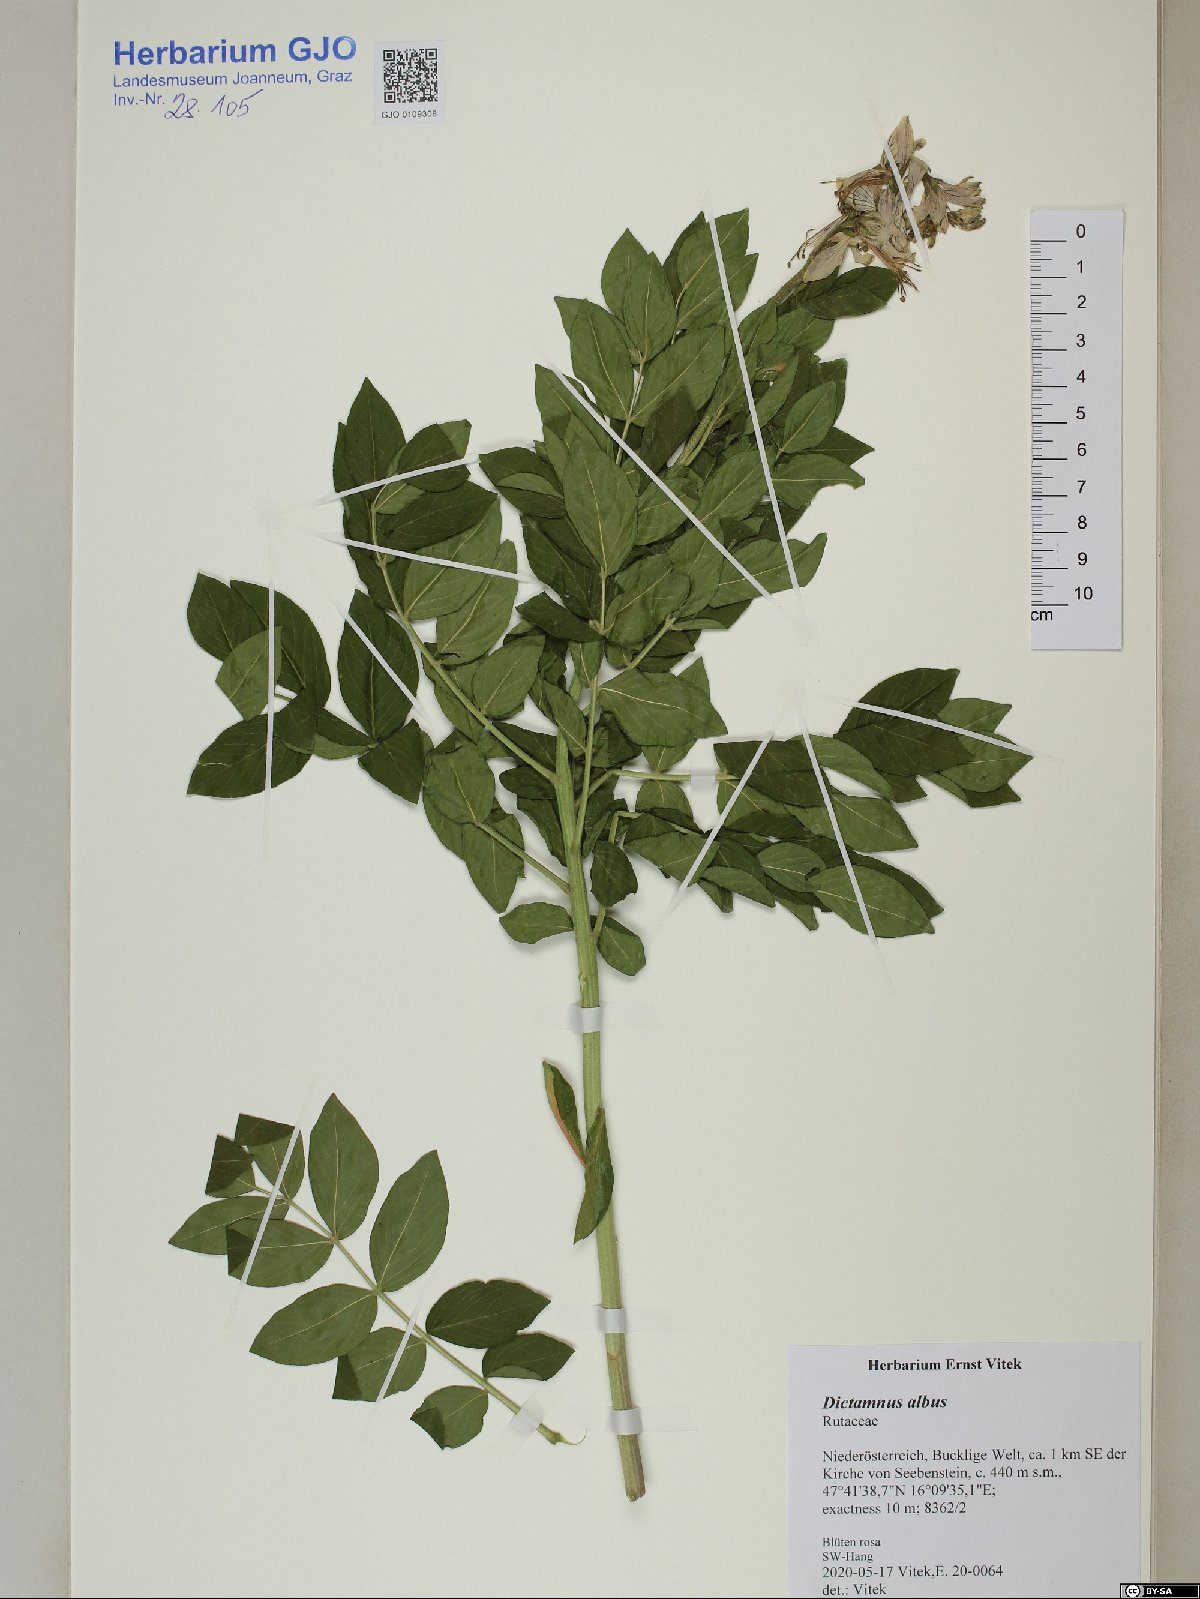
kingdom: Plantae
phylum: Tracheophyta
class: Magnoliopsida
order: Sapindales
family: Rutaceae
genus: Dictamnus
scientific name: Dictamnus albus
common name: Gasplant
